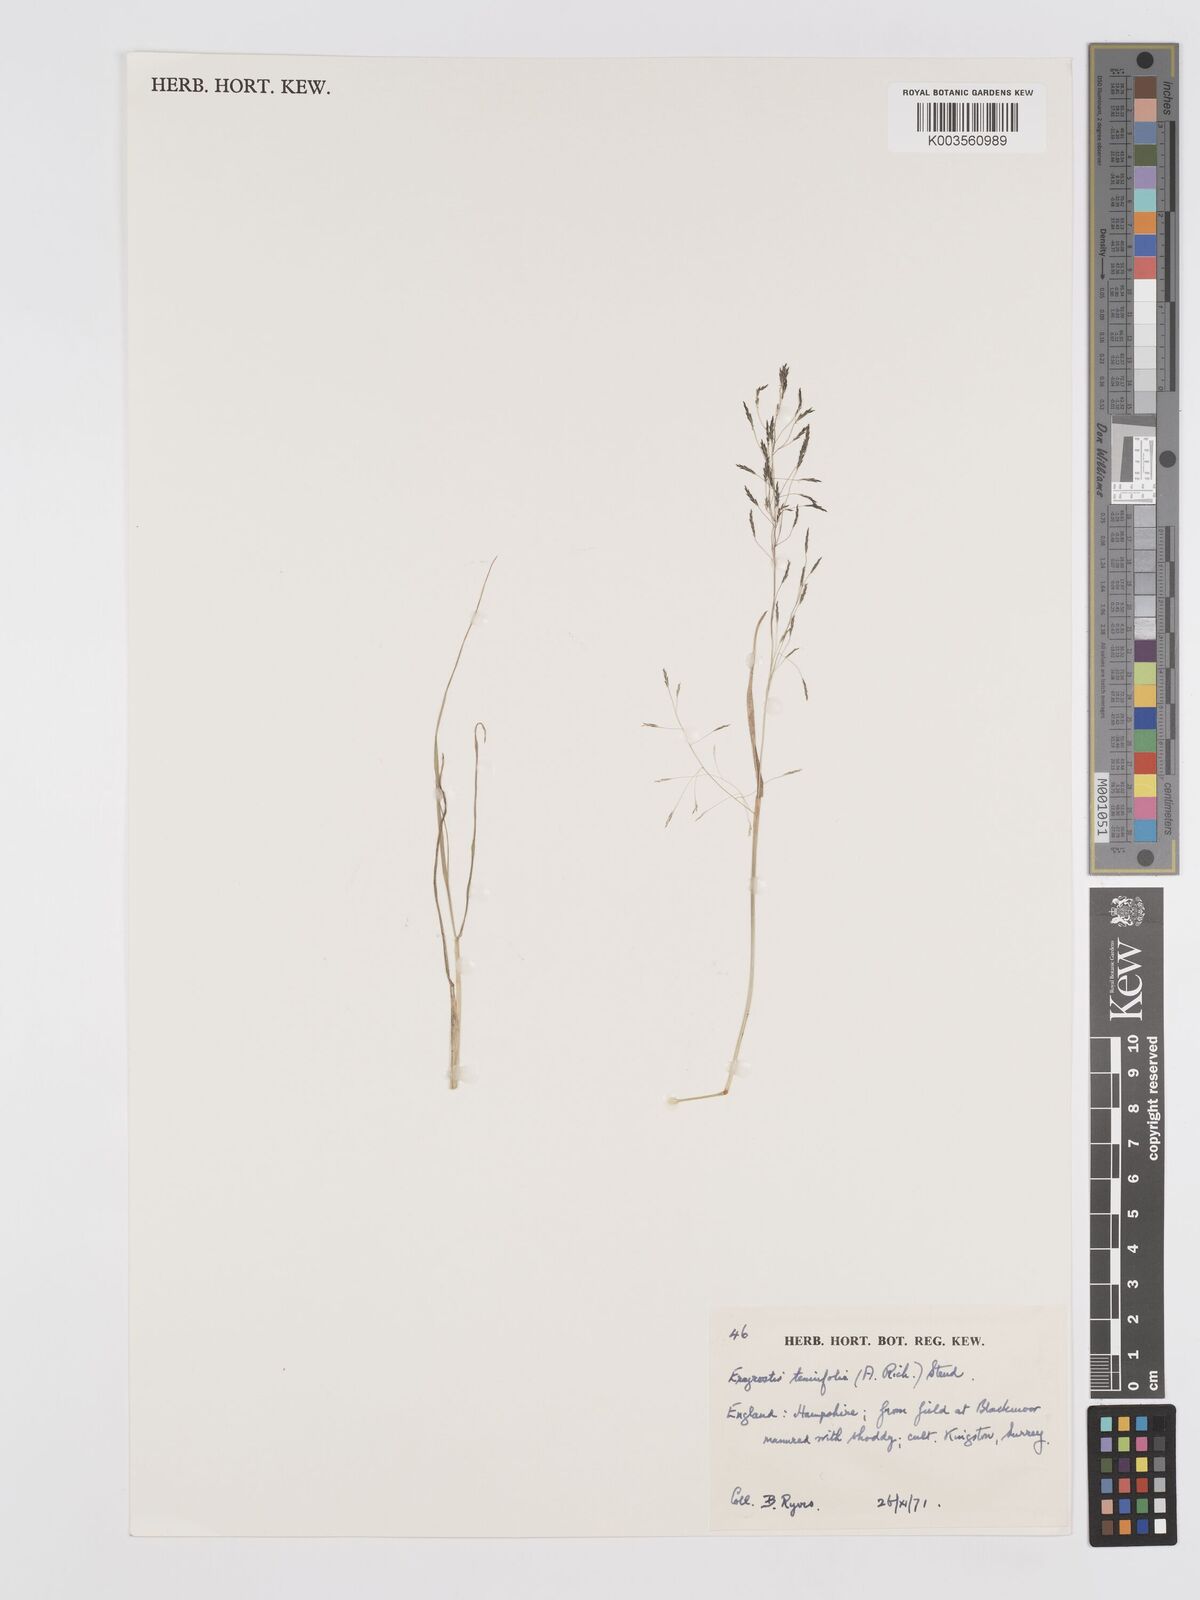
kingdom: Plantae
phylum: Tracheophyta
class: Liliopsida
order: Poales
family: Poaceae
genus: Eragrostis
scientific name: Eragrostis tenuifolia
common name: Elastic grass
